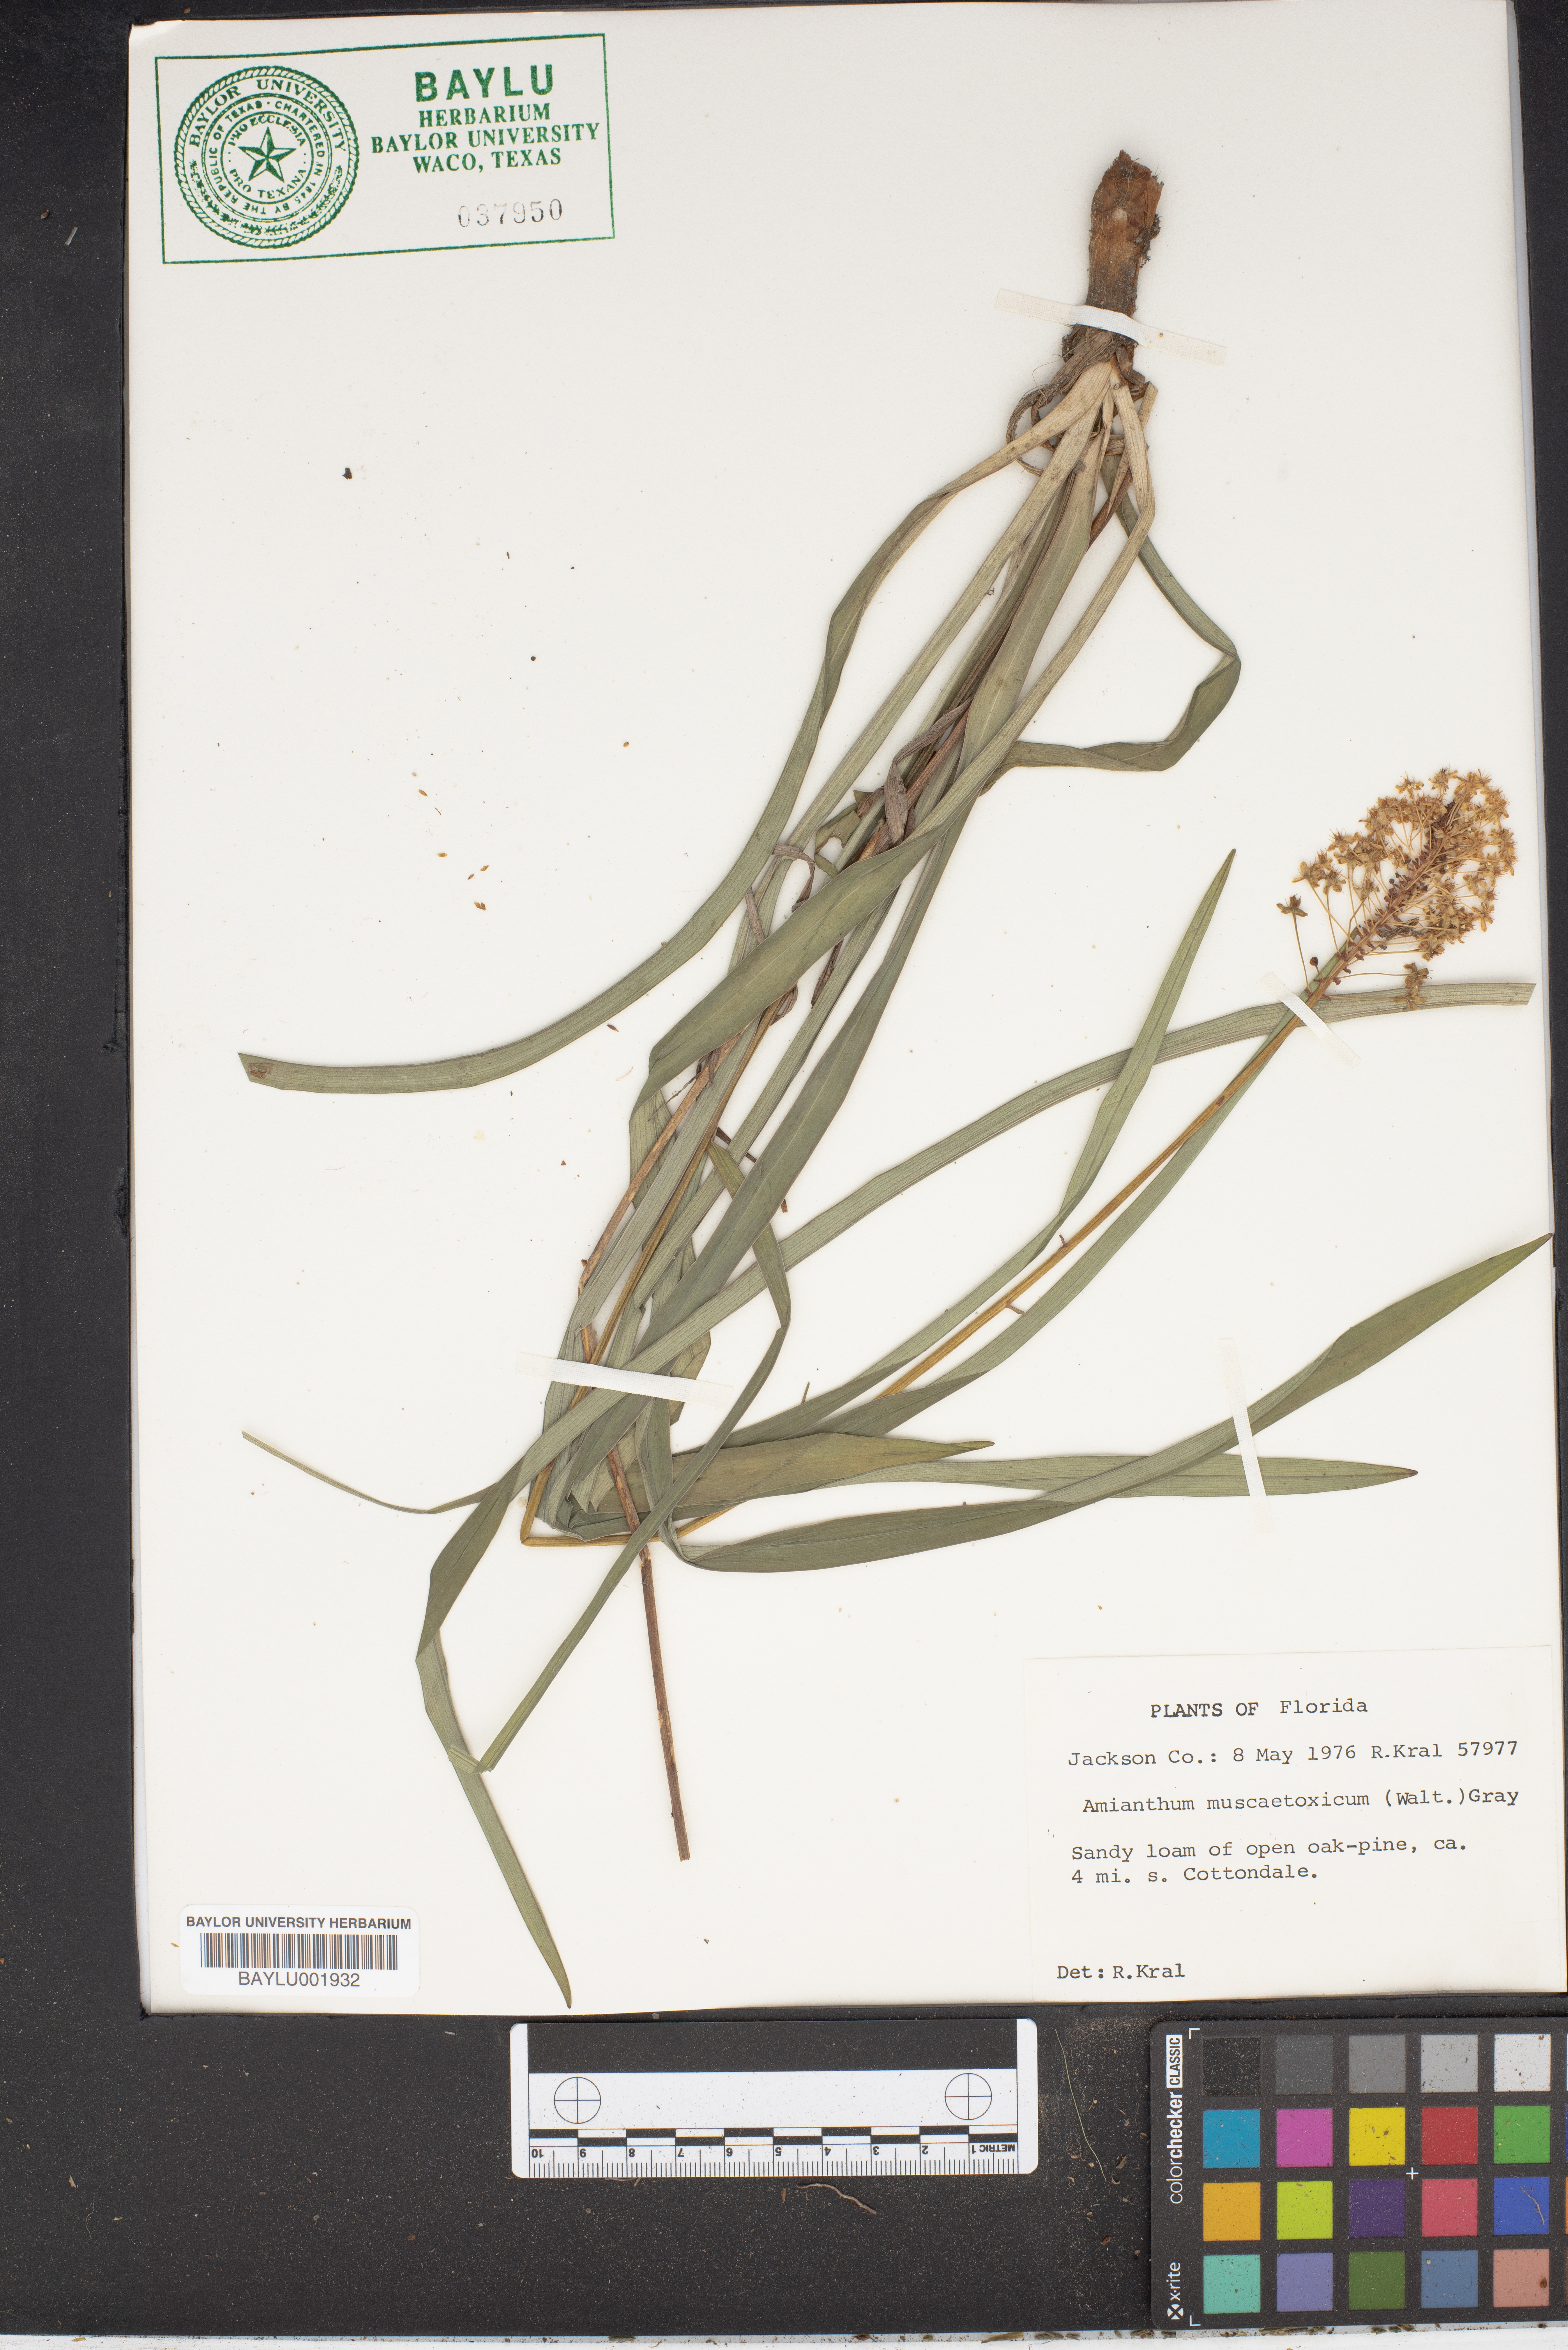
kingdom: Plantae
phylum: Tracheophyta
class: Liliopsida
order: Liliales
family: Melanthiaceae
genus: Amianthium
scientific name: Amianthium muscitoxicum
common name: Fly-poison
